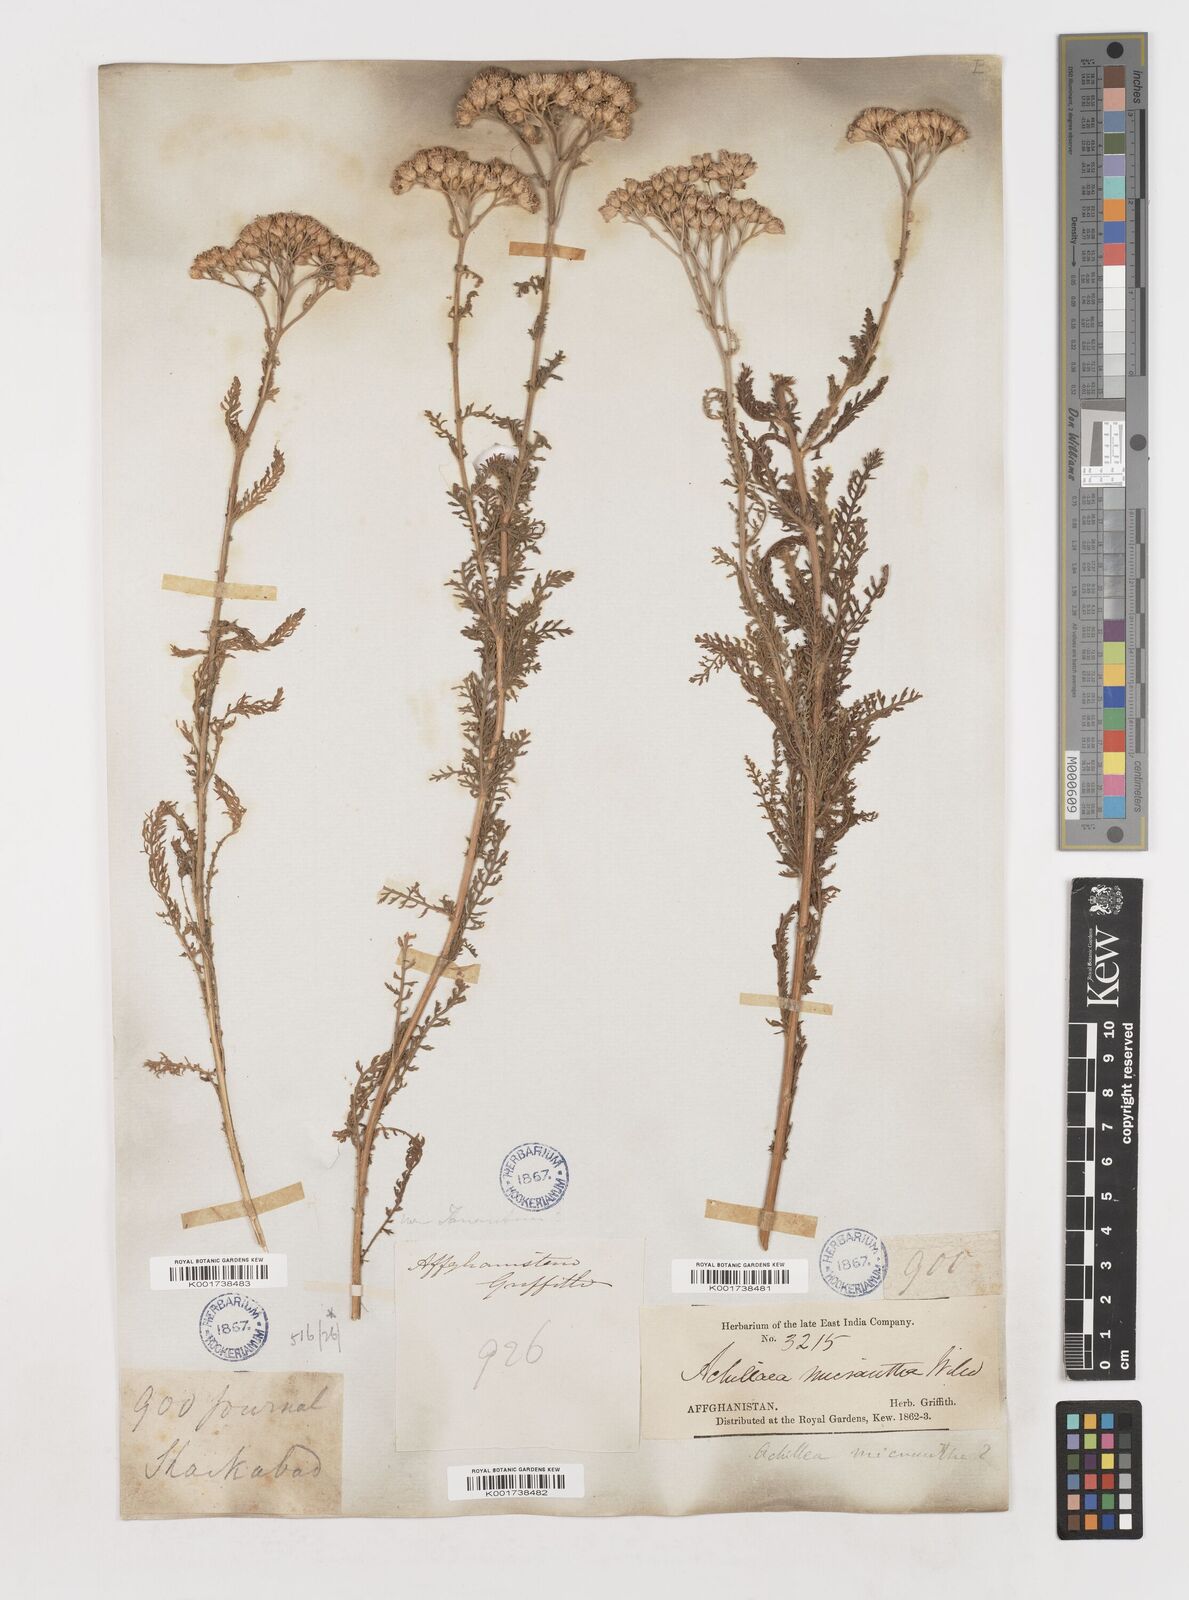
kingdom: Plantae
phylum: Tracheophyta
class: Magnoliopsida
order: Asterales
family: Asteraceae
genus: Achillea
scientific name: Achillea arabica
